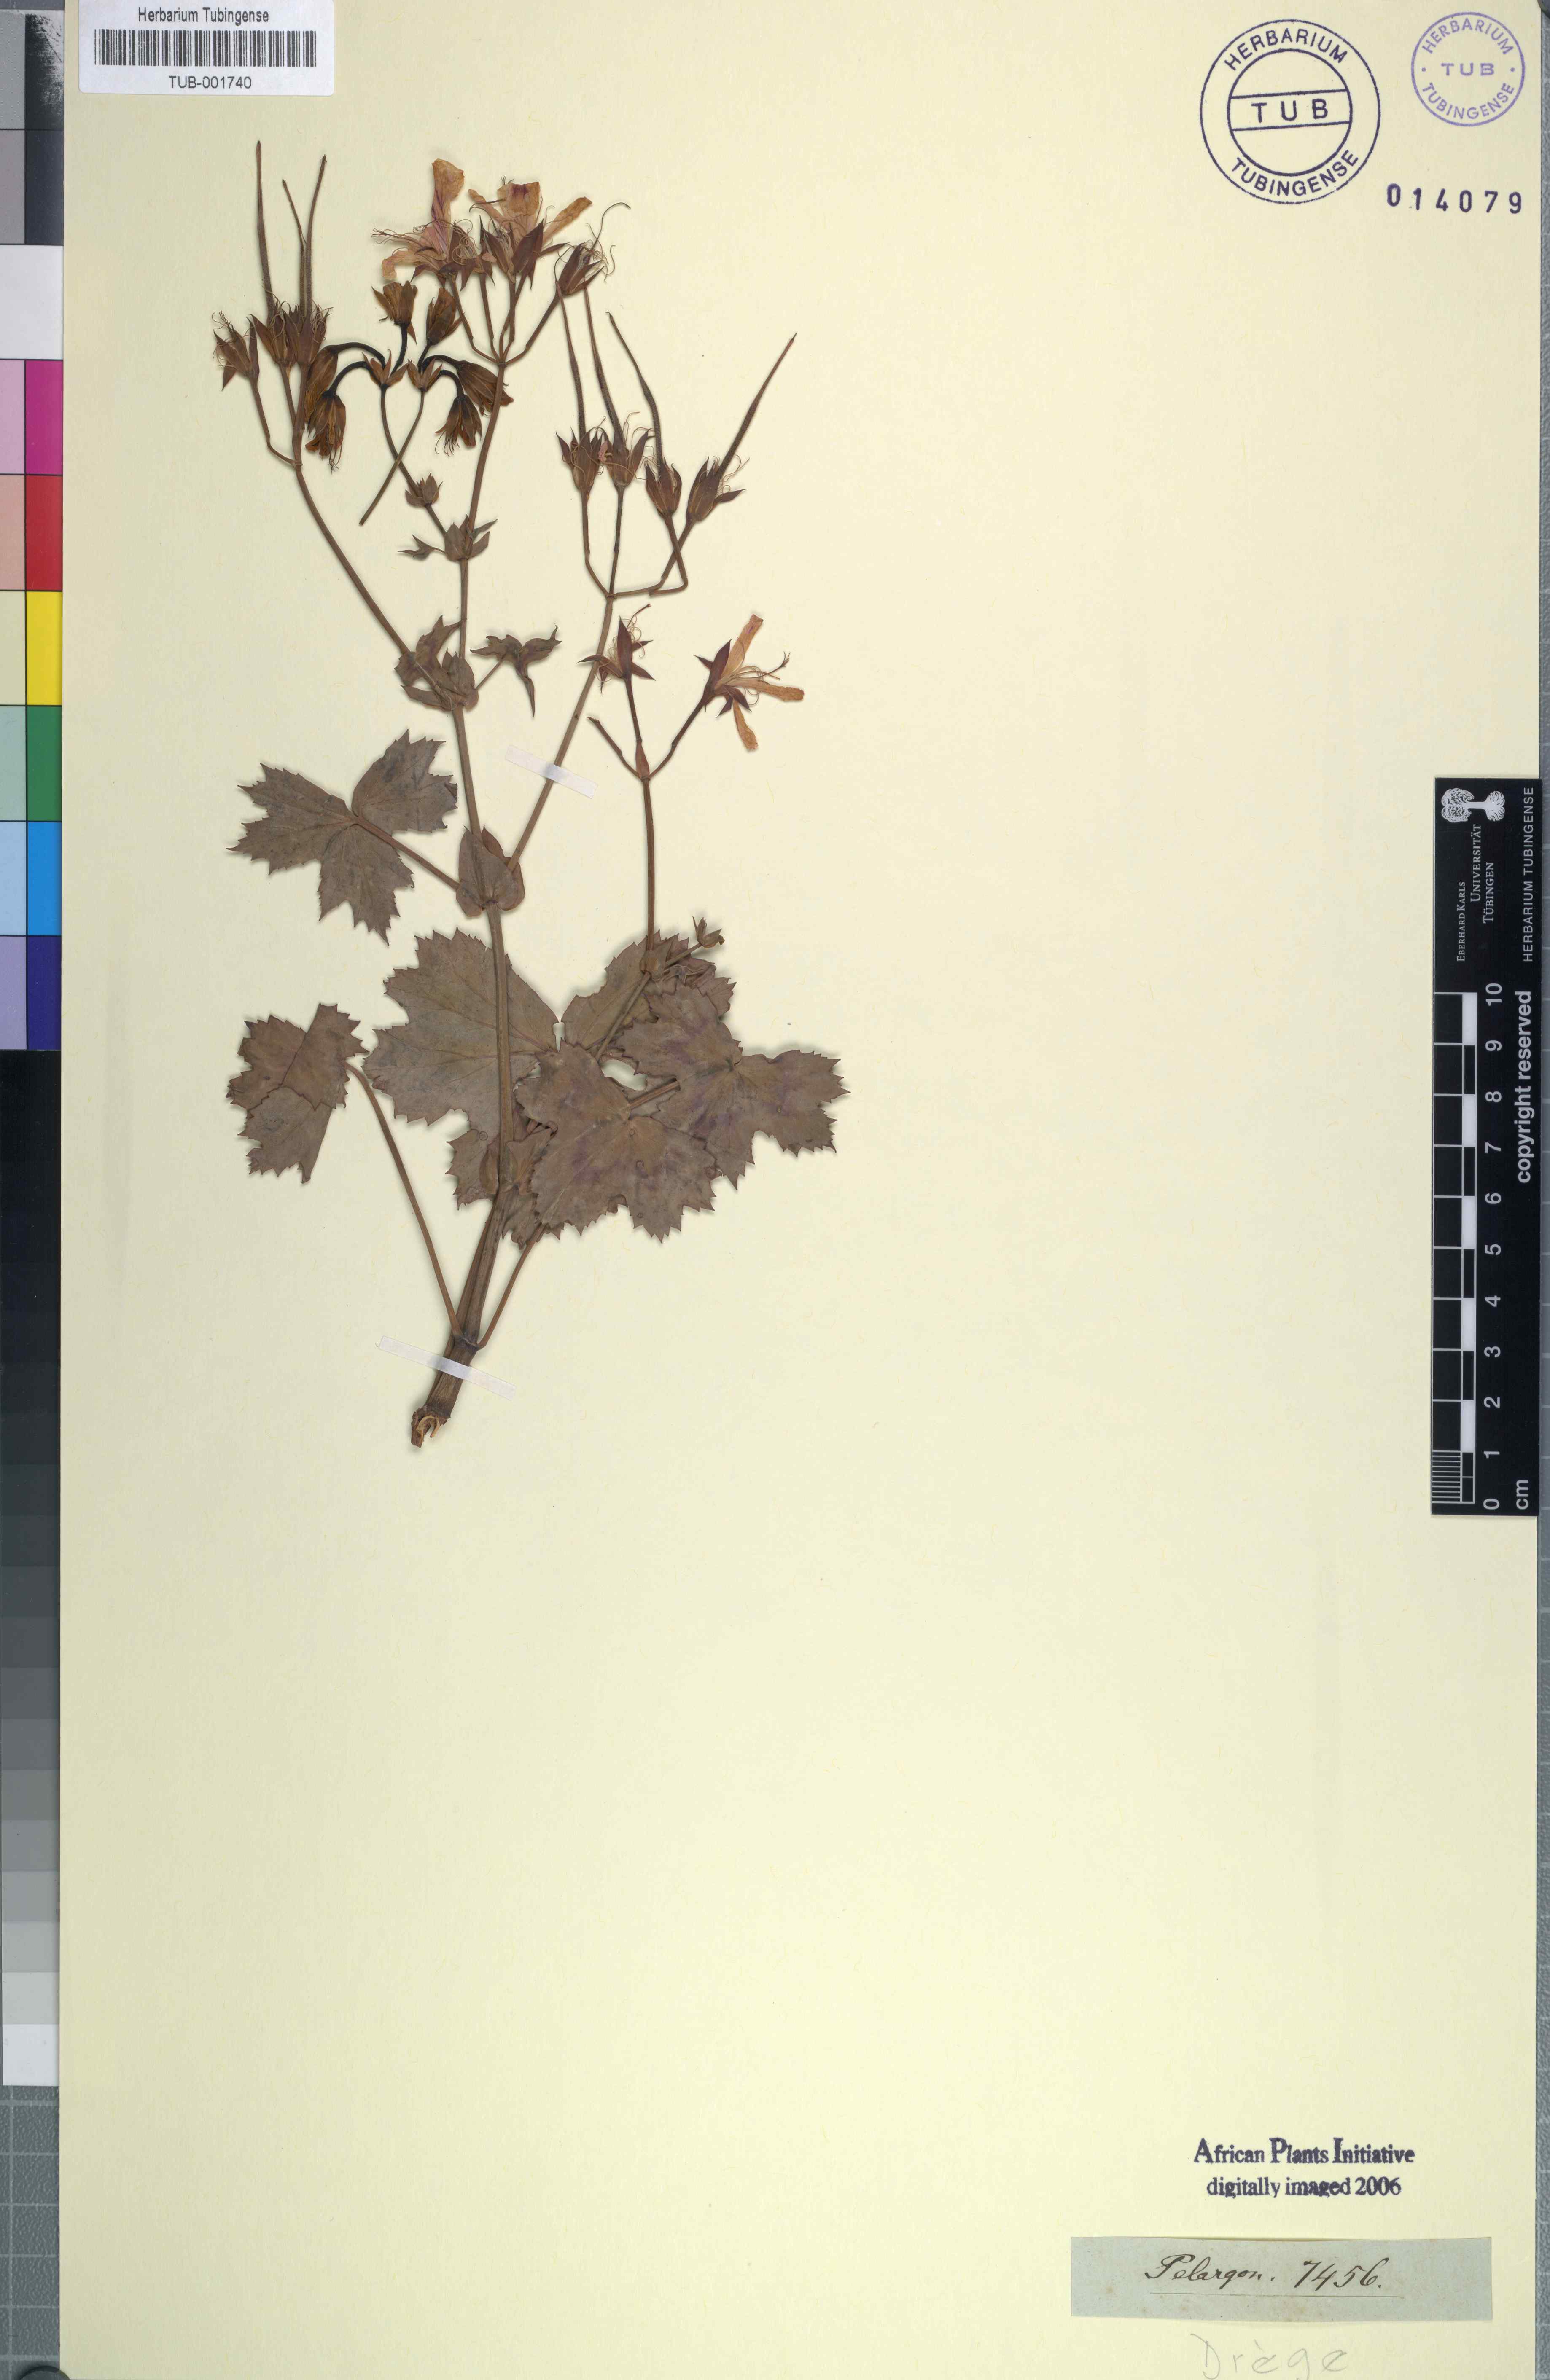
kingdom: Plantae
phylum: Tracheophyta
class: Magnoliopsida
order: Geraniales
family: Geraniaceae
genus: Pelargonium
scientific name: Pelargonium
